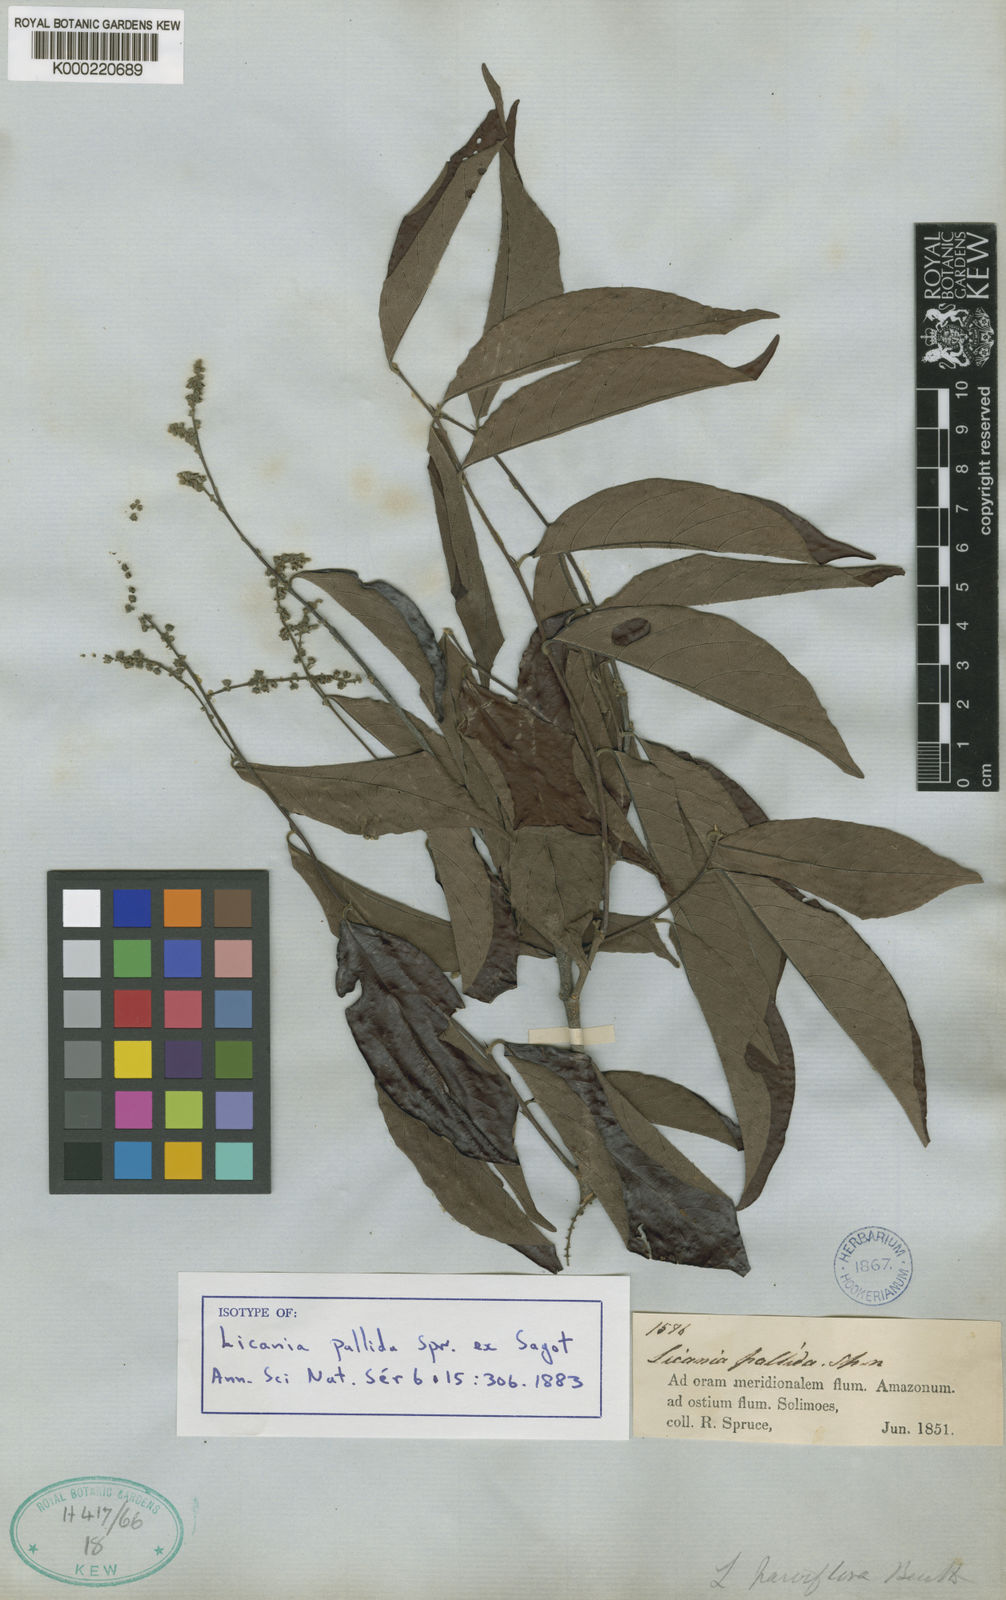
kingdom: Plantae
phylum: Tracheophyta
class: Magnoliopsida
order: Malpighiales
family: Chrysobalanaceae
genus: Licania
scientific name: Licania pallida
